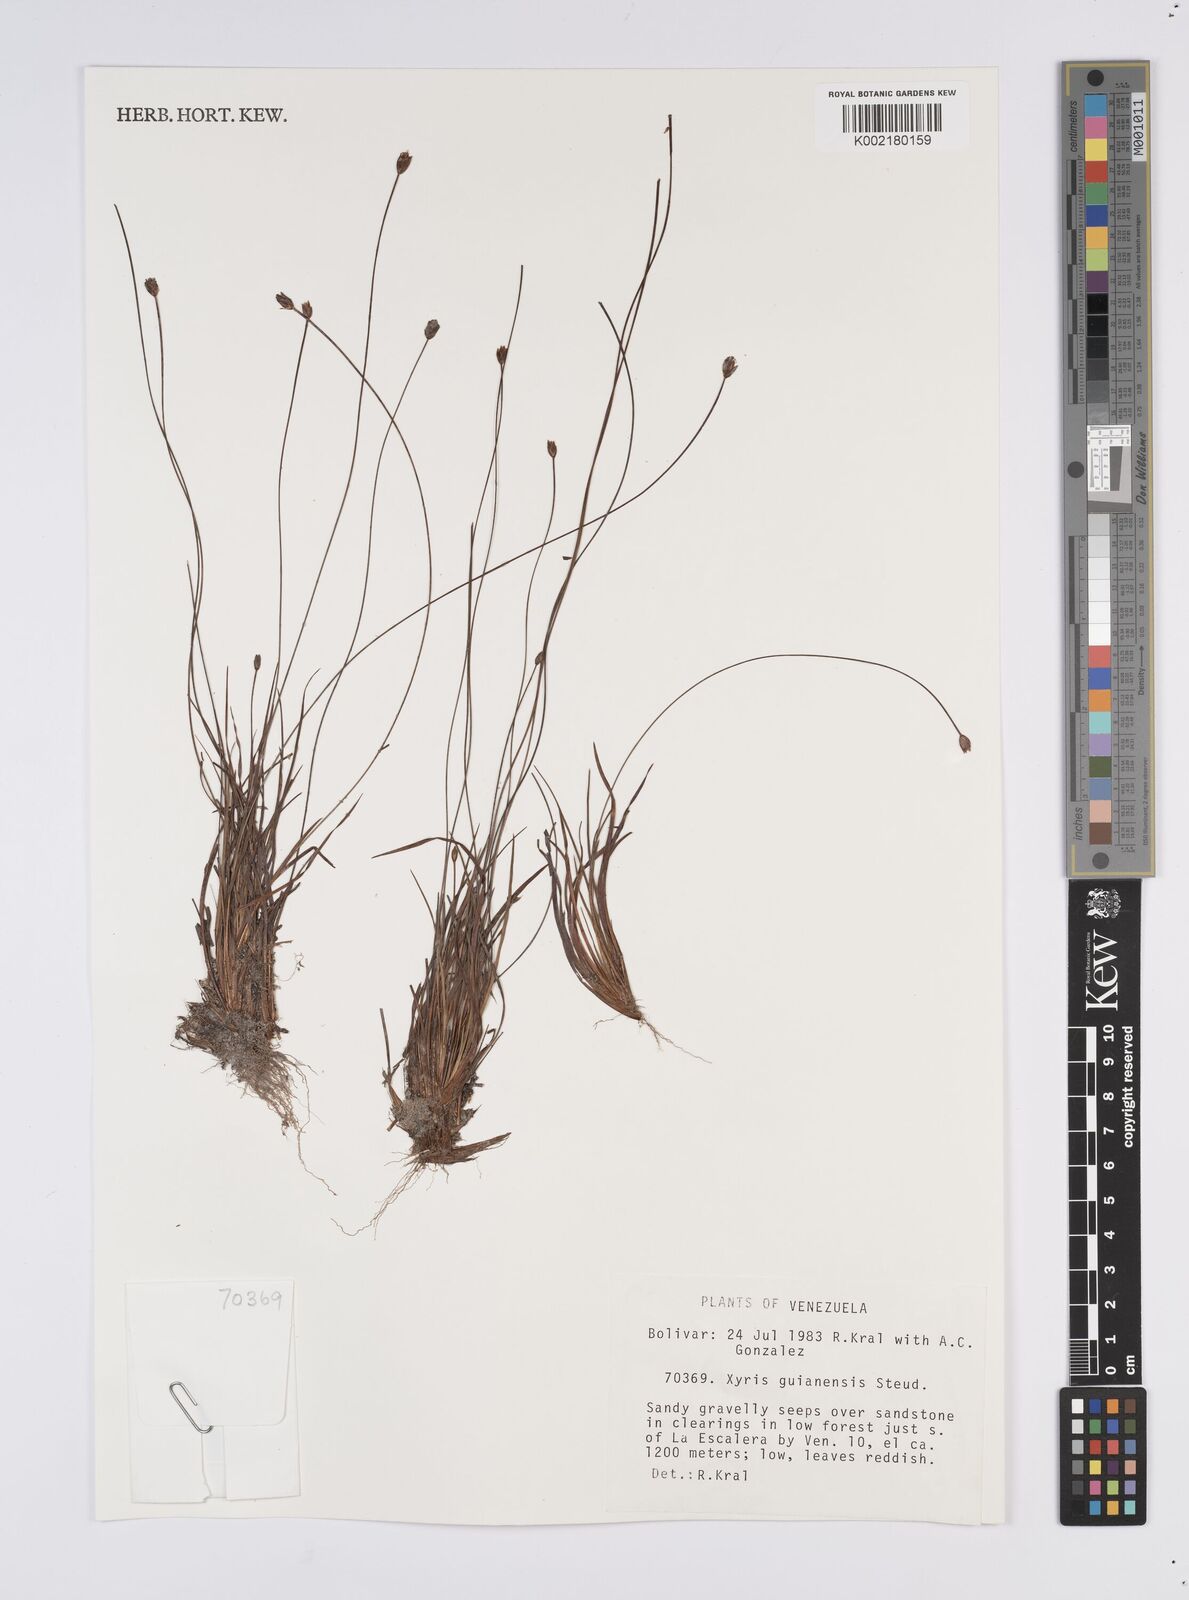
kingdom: Plantae
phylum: Tracheophyta
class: Liliopsida
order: Poales
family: Xyridaceae
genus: Xyris
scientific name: Xyris guianensis
